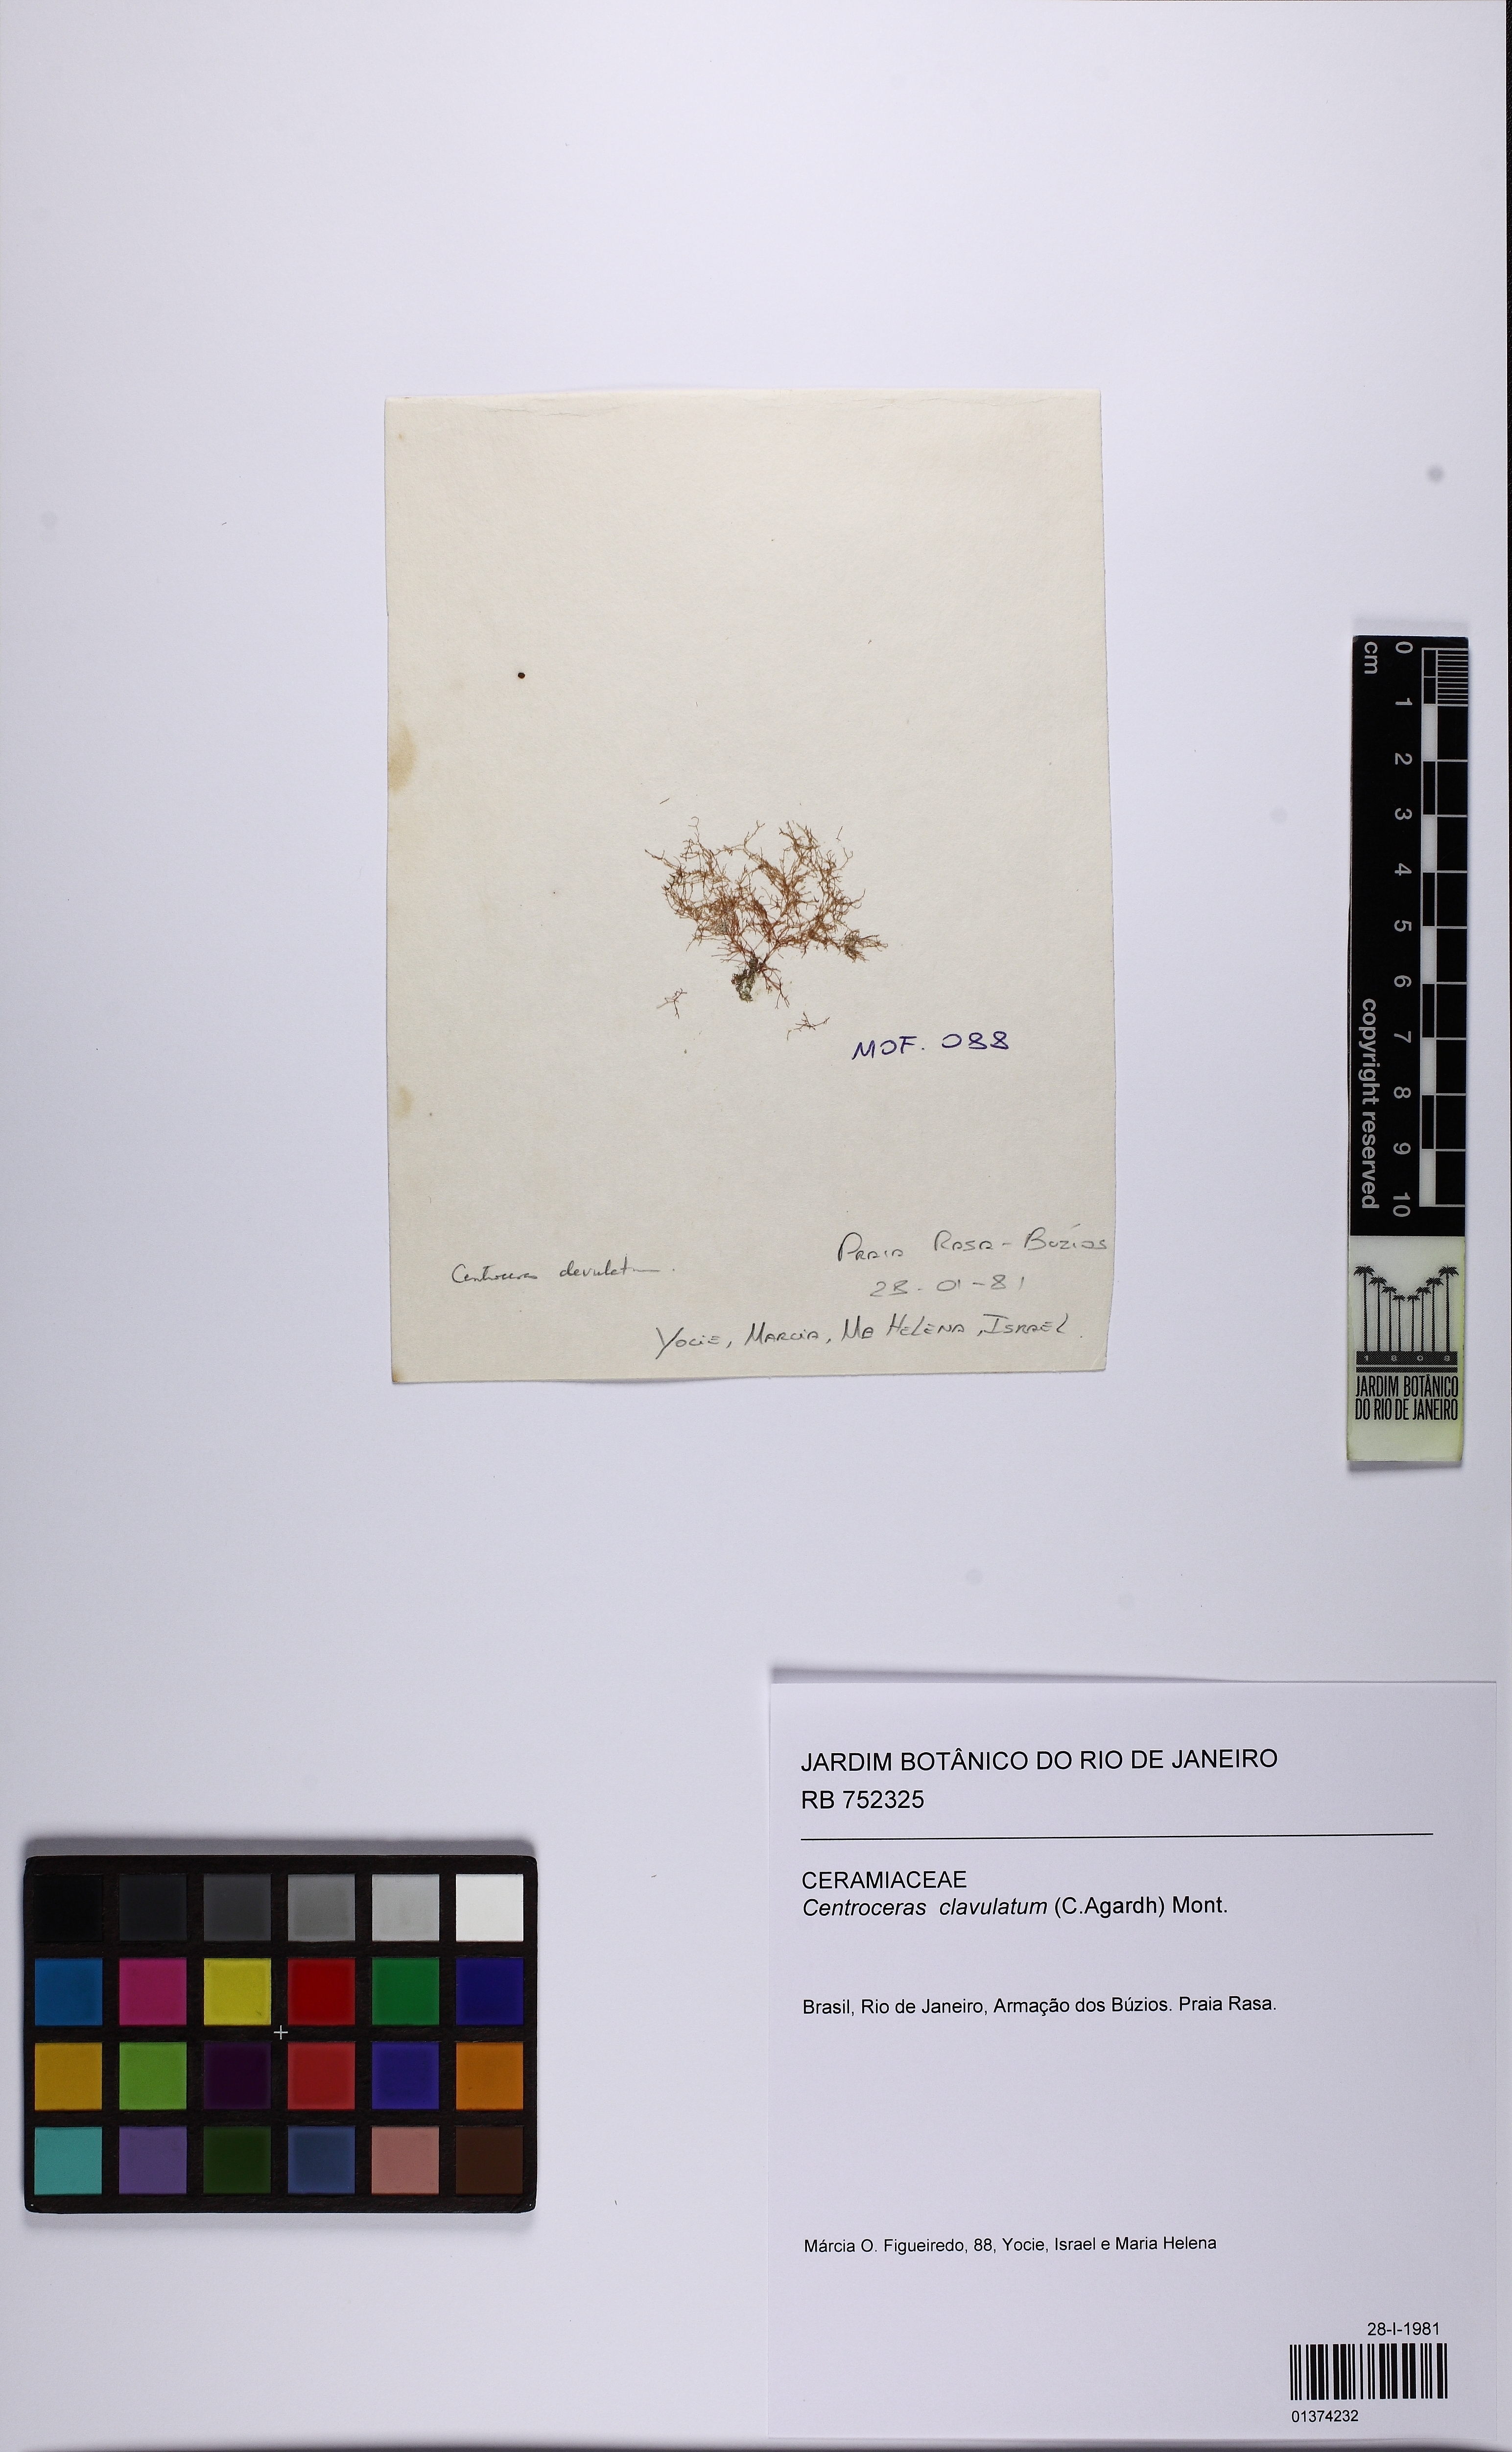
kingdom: Plantae
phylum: Rhodophyta
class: Florideophyceae
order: Ceramiales
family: Ceramiaceae
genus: Centroceras
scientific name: Centroceras clavulatum
